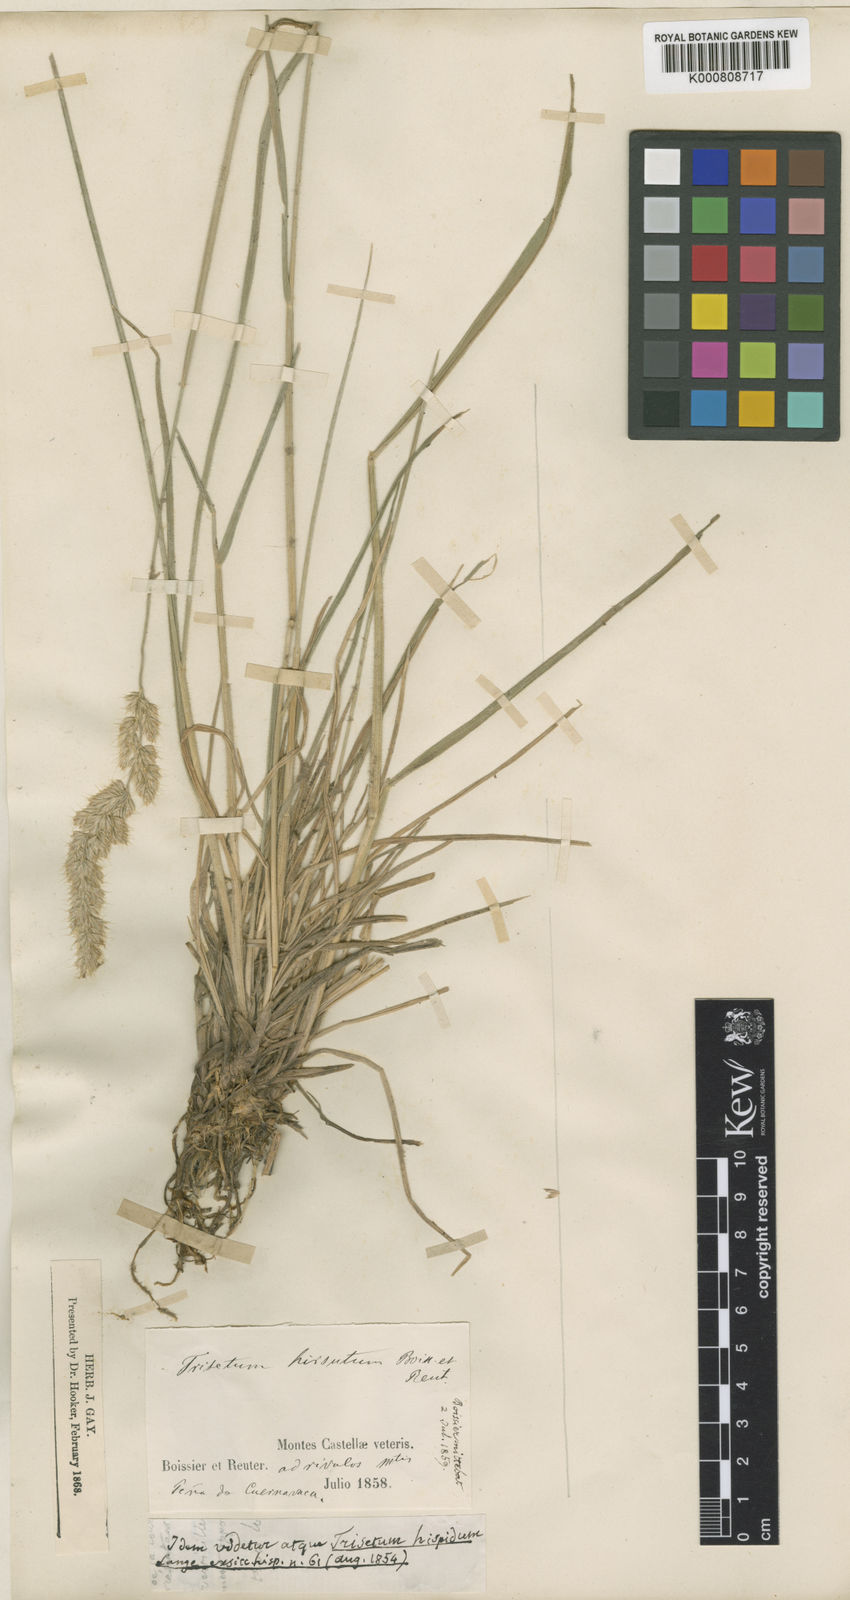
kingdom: Plantae
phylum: Tracheophyta
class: Liliopsida
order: Poales
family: Poaceae
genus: Trisetaria
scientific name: Trisetaria loeflingiana
